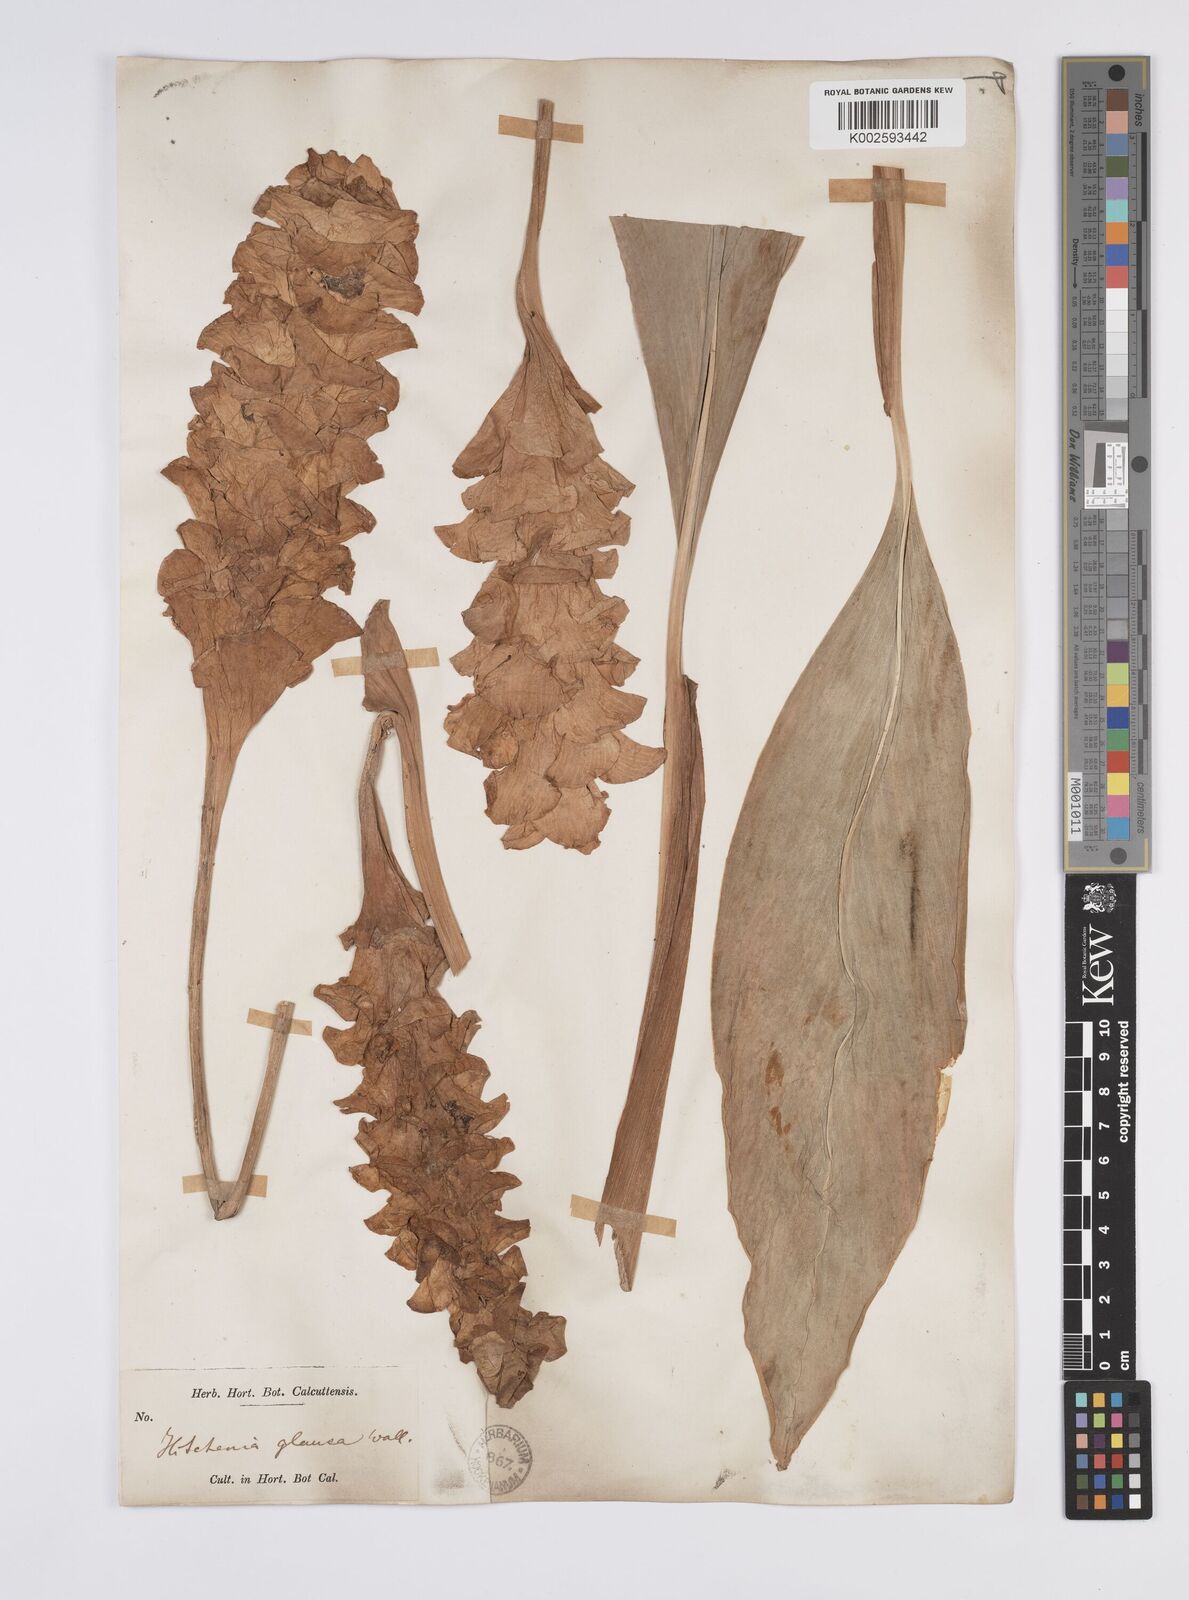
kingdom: Plantae
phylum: Tracheophyta
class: Liliopsida
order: Zingiberales
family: Zingiberaceae
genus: Curcuma
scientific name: Curcuma glauca
